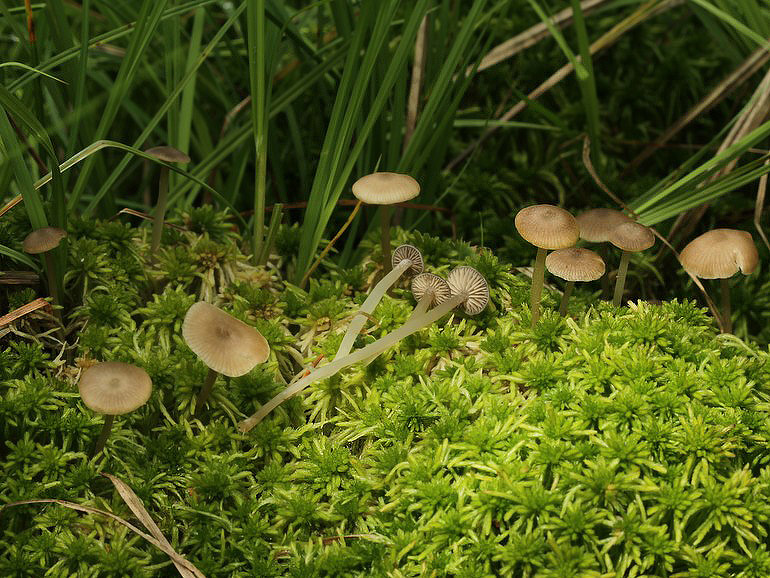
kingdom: Fungi
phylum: Basidiomycota
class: Agaricomycetes
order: Agaricales
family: Lyophyllaceae
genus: Sphagnurus
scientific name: Sphagnurus paluster
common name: tørvemos-gråblad
